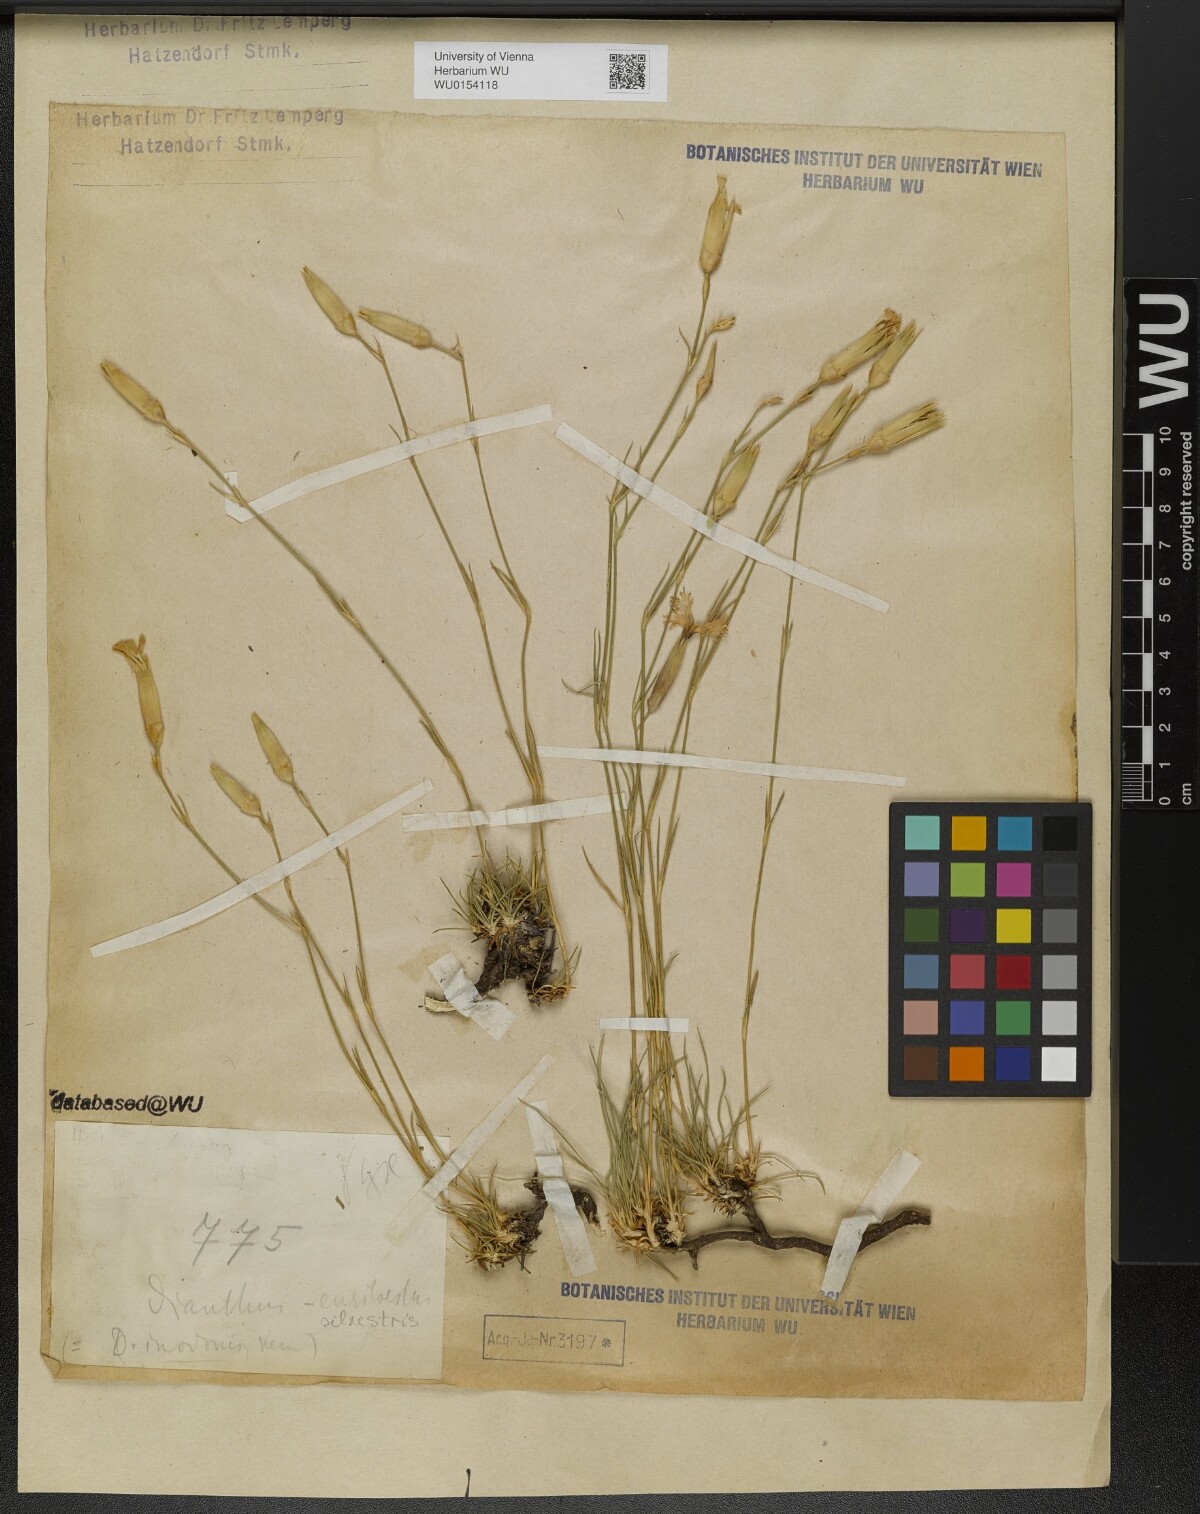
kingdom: Plantae
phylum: Tracheophyta
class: Magnoliopsida
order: Caryophyllales
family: Caryophyllaceae
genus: Dianthus
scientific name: Dianthus sylvestris
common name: Wood pink
